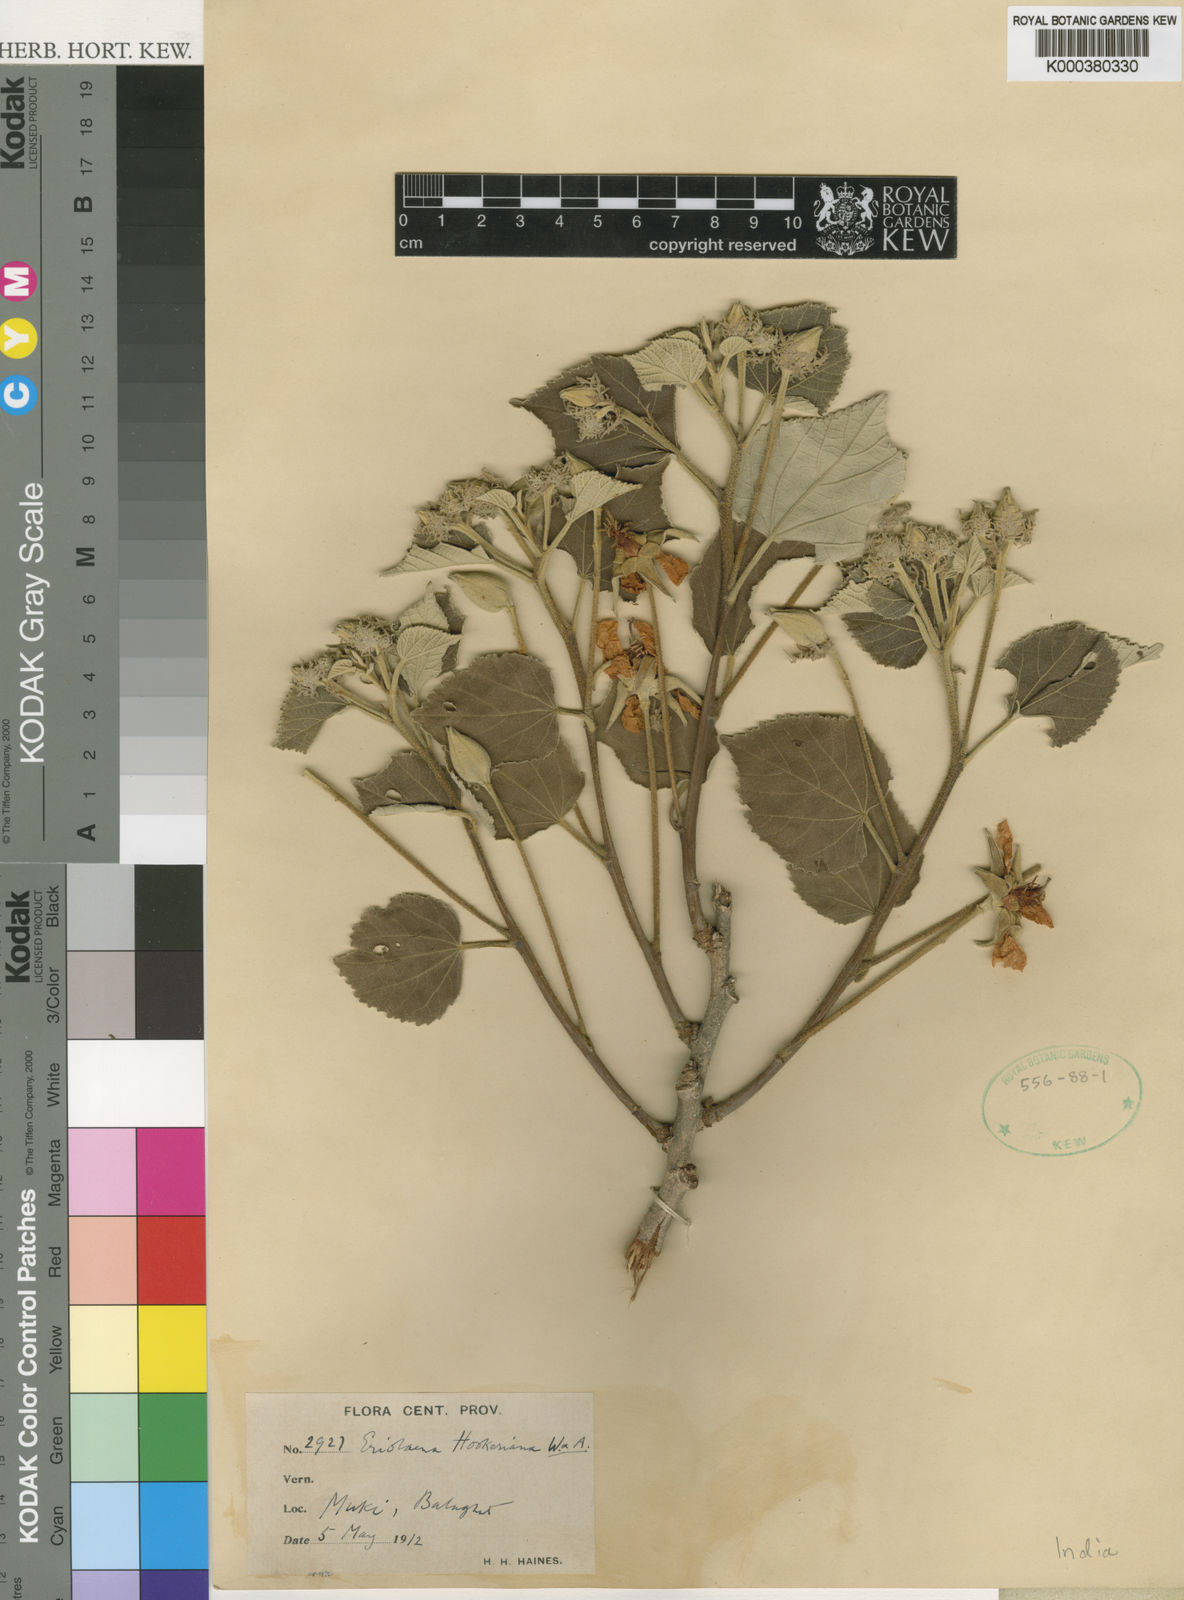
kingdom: Plantae
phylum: Tracheophyta
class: Magnoliopsida
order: Malvales
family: Malvaceae
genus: Eriolaena
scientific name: Eriolaena hookeriana
